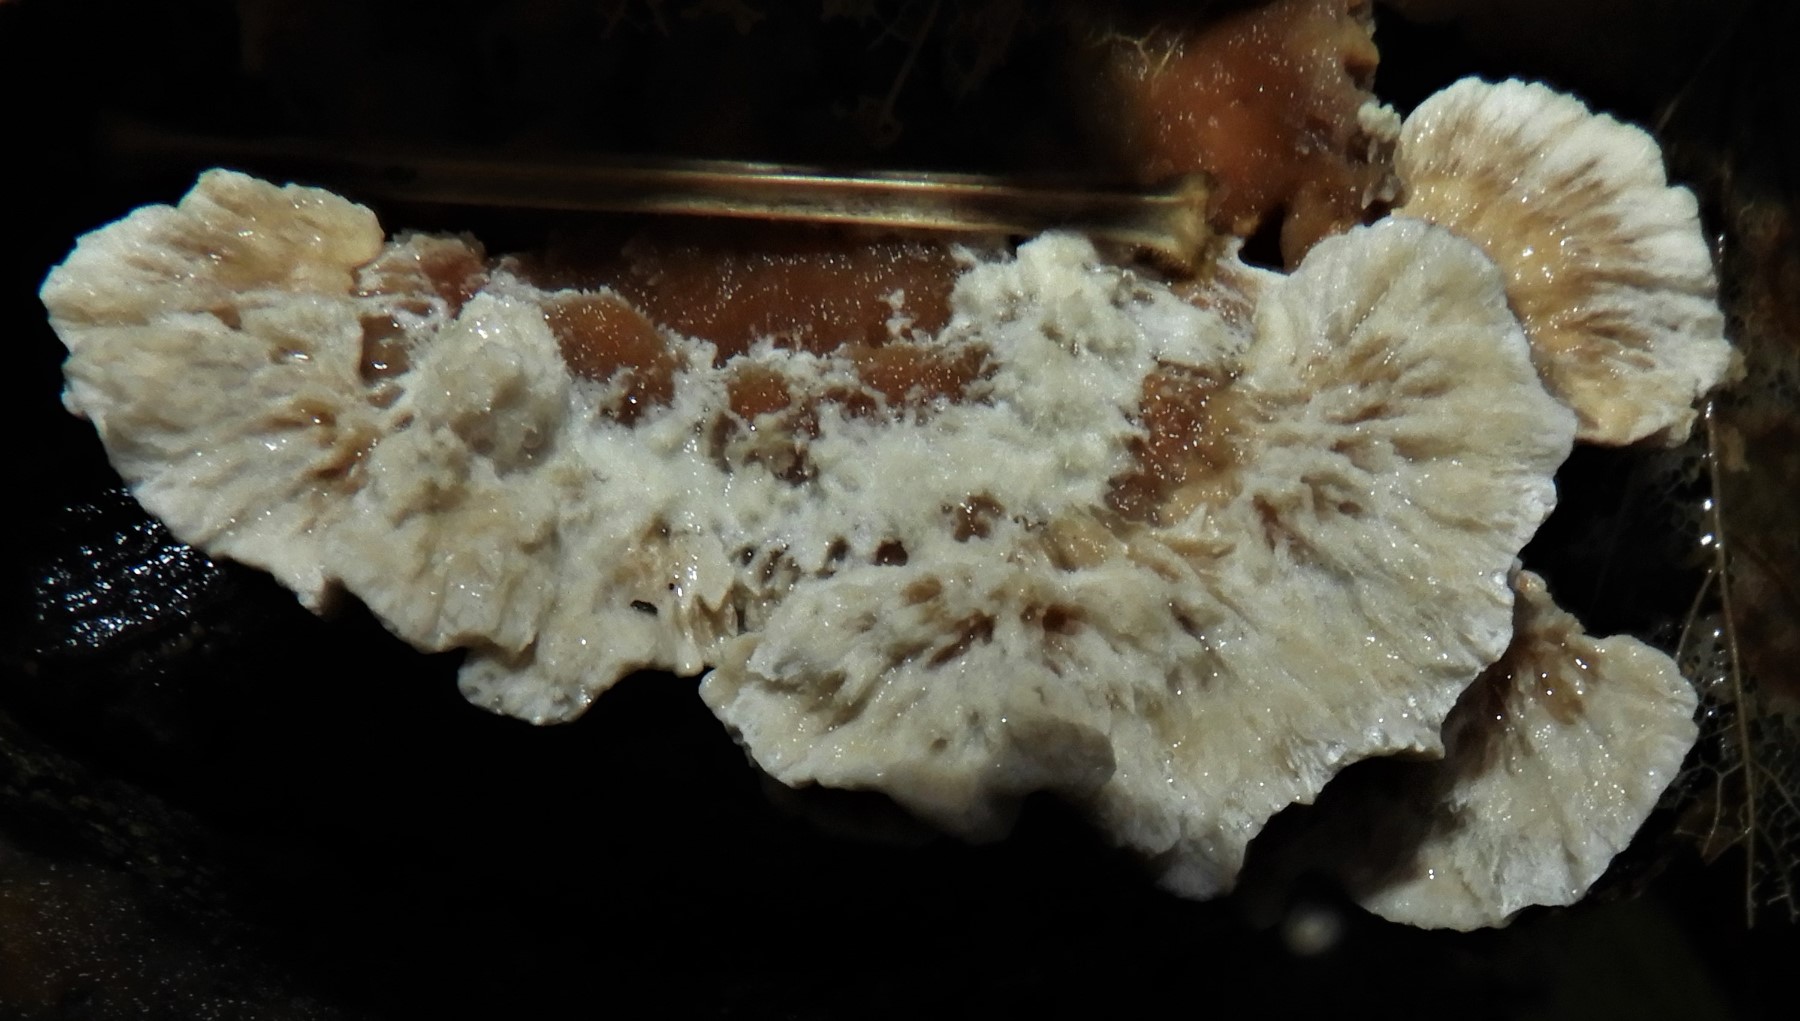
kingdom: Fungi
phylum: Basidiomycota
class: Agaricomycetes
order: Polyporales
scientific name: Polyporales
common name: poresvampordenen
